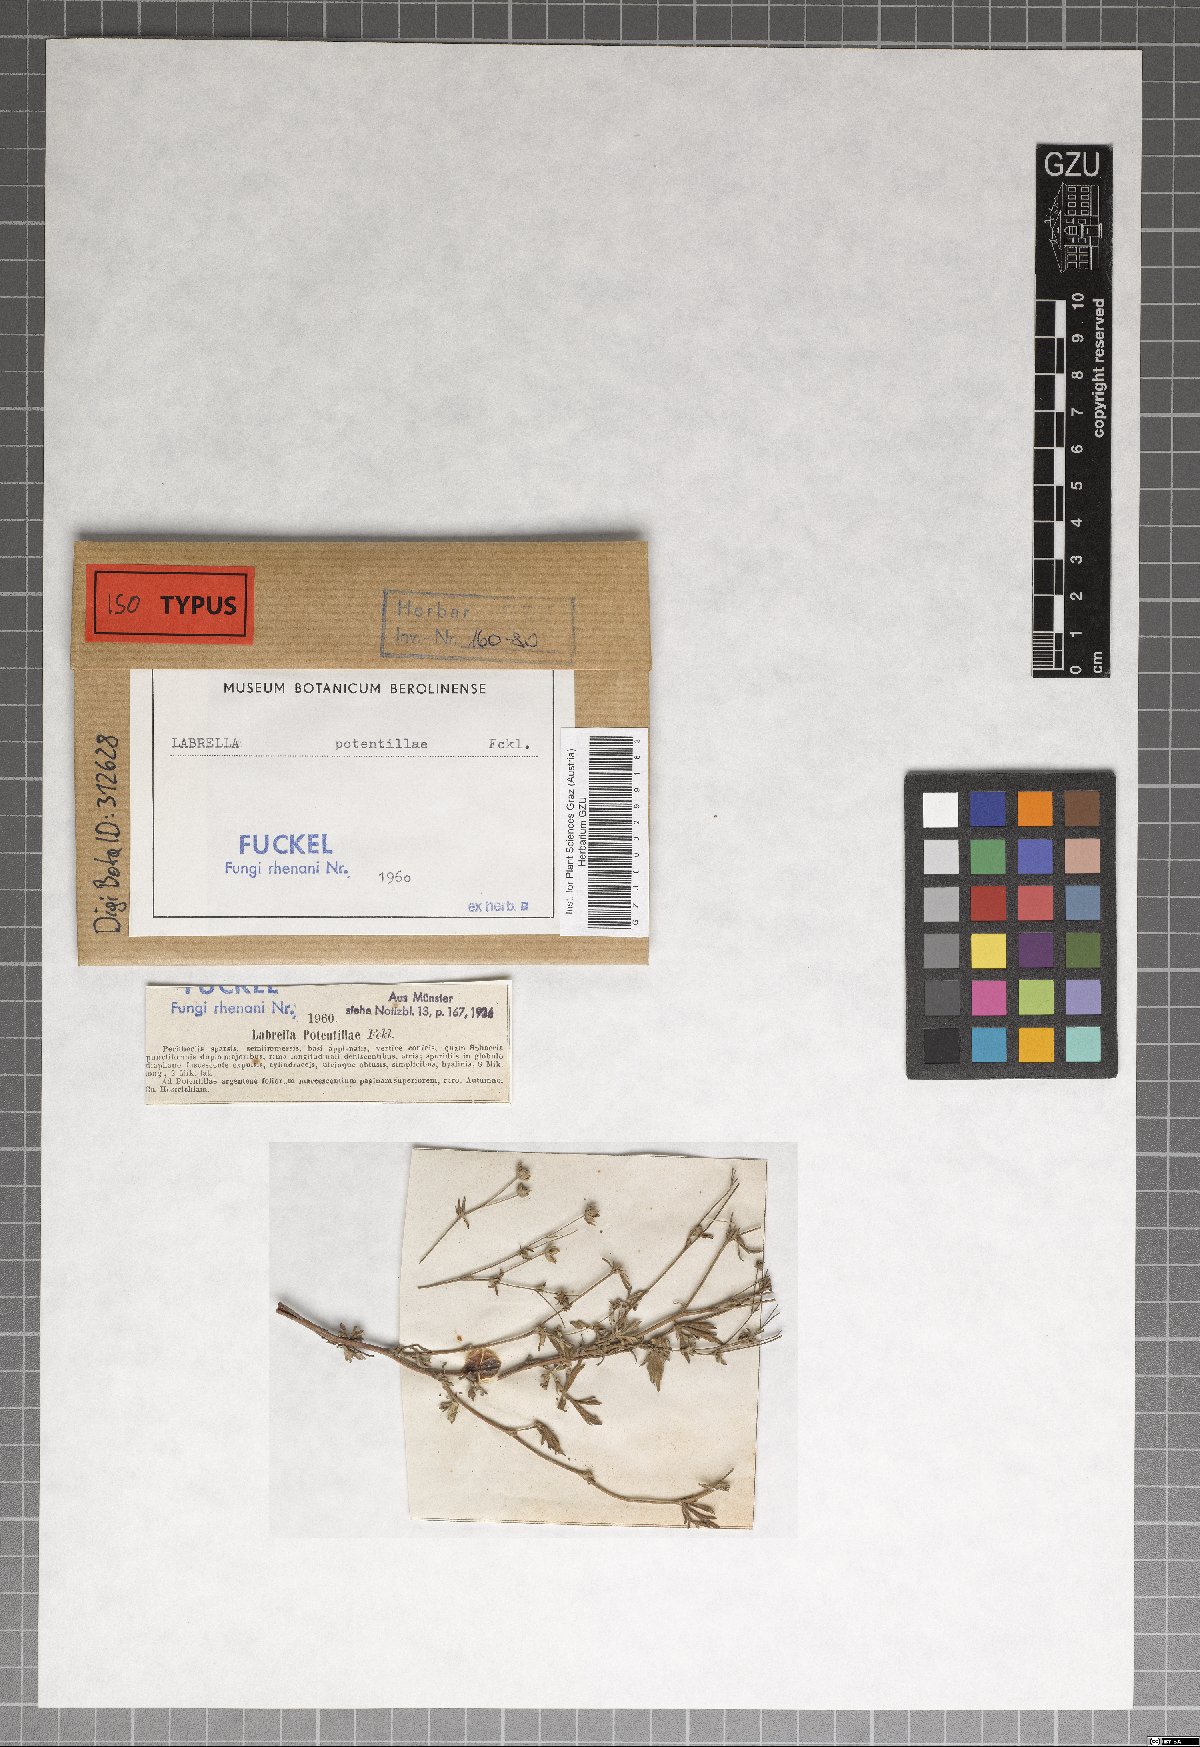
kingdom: Fungi
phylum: Ascomycota
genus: Labrella
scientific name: Labrella
